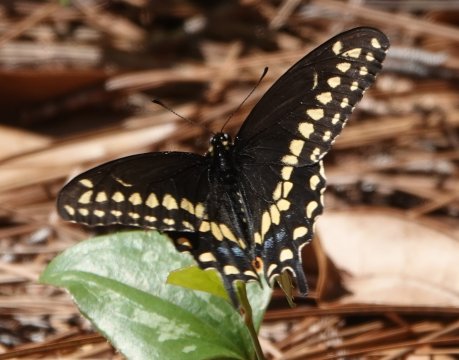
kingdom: Animalia
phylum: Arthropoda
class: Insecta
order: Lepidoptera
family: Papilionidae
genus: Papilio
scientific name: Papilio polyxenes
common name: Black Swallowtail
